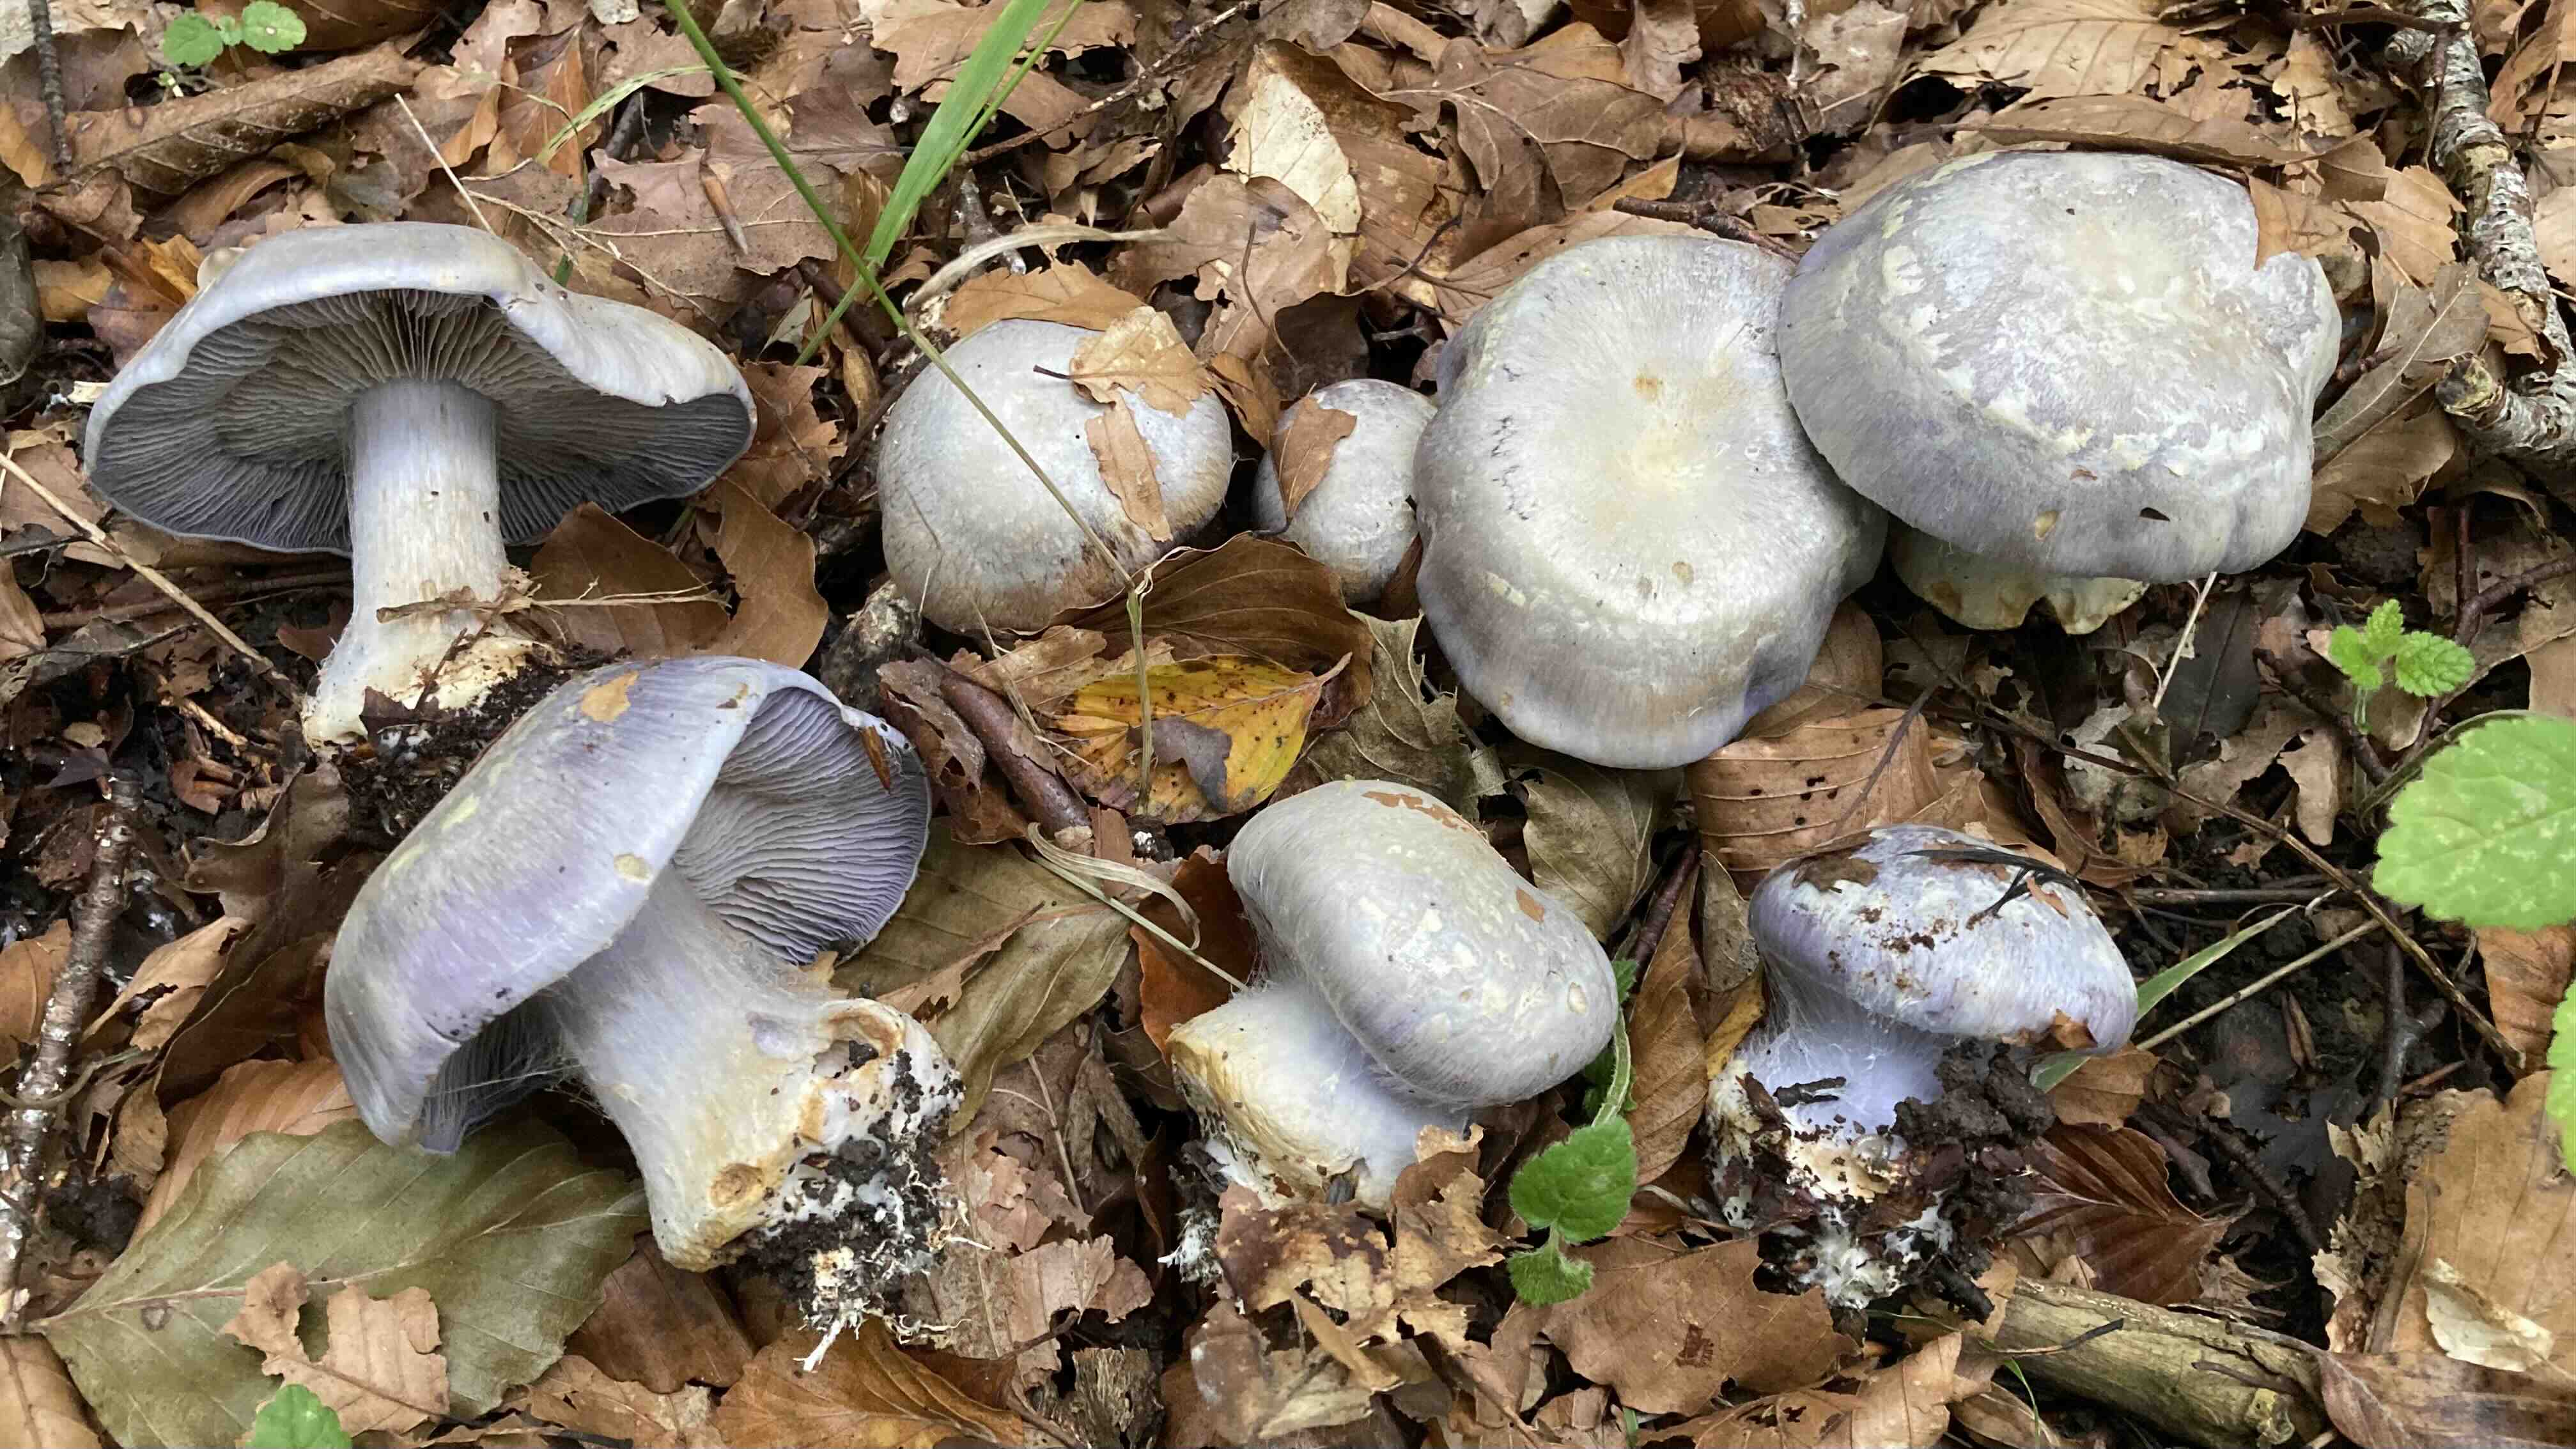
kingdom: Fungi
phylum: Basidiomycota
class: Agaricomycetes
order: Agaricales
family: Cortinariaceae
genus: Cortinarius
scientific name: Cortinarius caerulescens
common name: blåkødet slørhat
